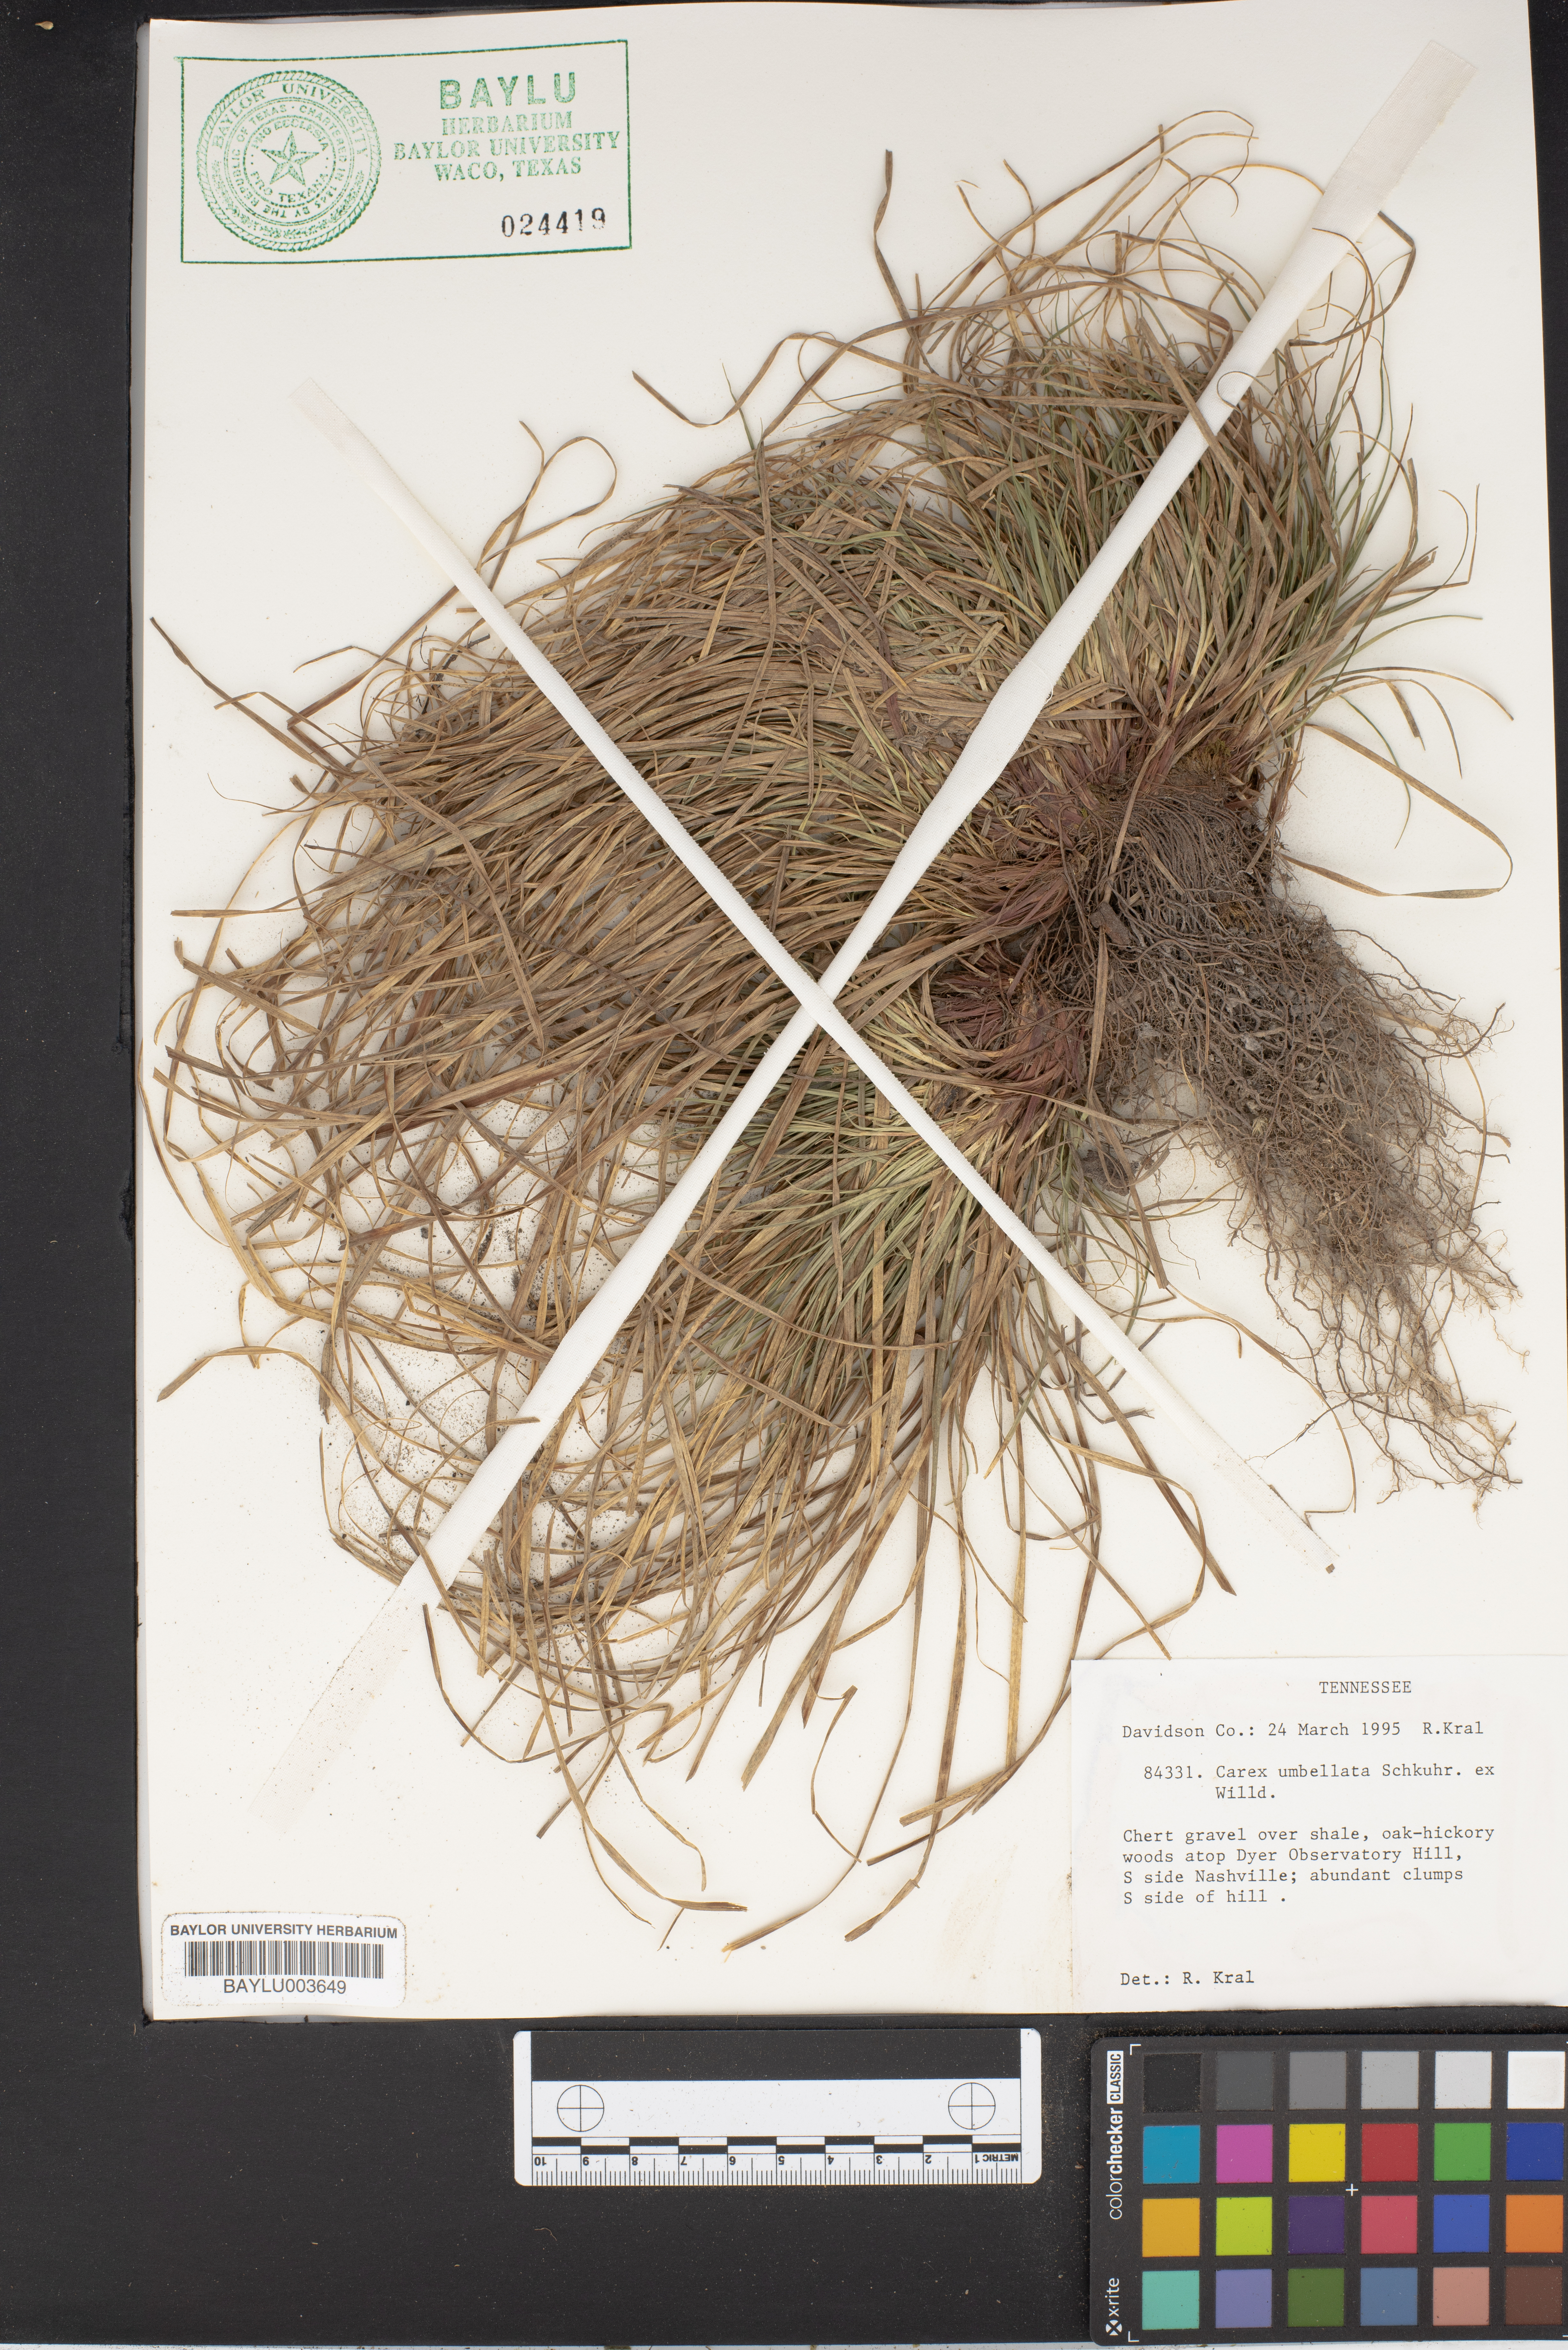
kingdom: Plantae
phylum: Tracheophyta
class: Liliopsida
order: Poales
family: Cyperaceae
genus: Carex
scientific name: Carex umbellata
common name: Early oak sedge
